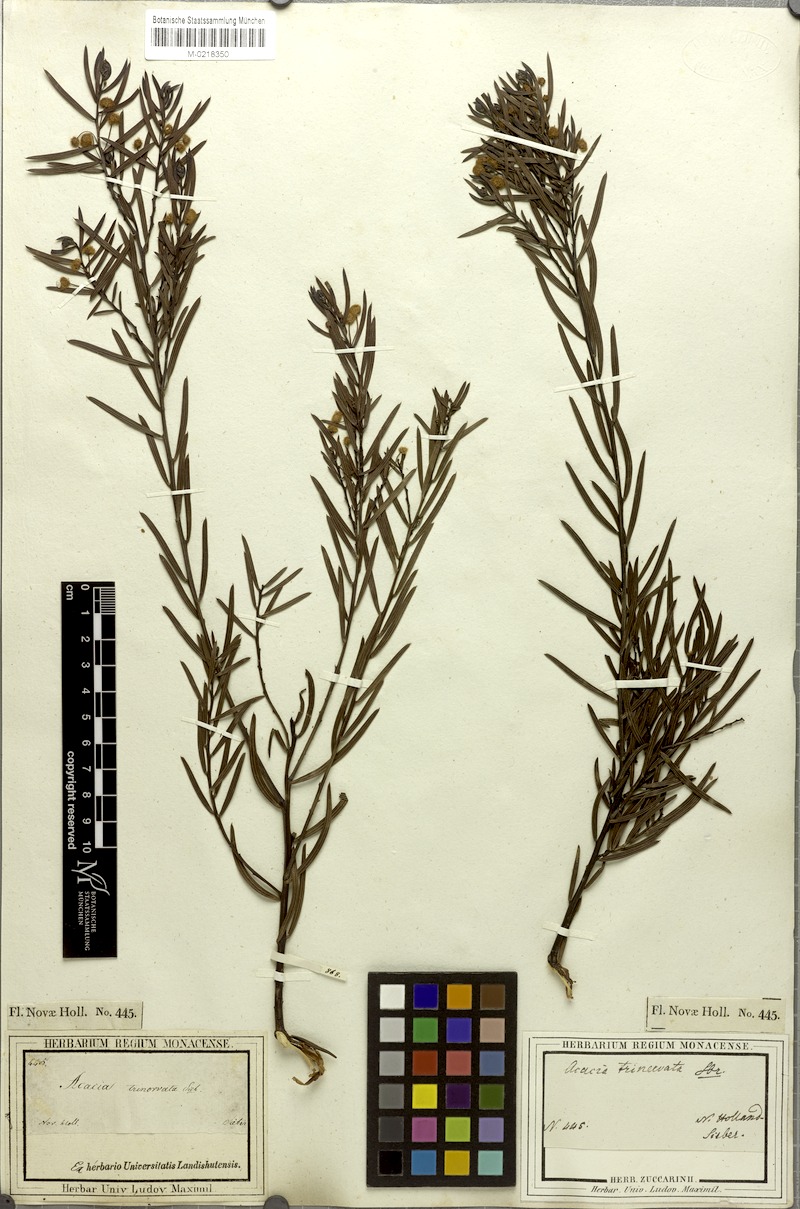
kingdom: Plantae
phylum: Tracheophyta
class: Magnoliopsida
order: Fabales
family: Fabaceae
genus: Acacia
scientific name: Acacia trinervata
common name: Three-nerve wattle
